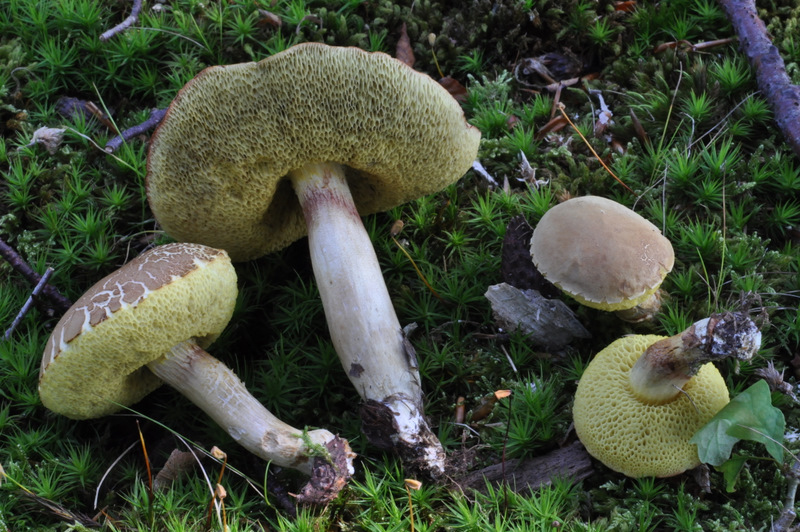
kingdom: Fungi
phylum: Basidiomycota
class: Agaricomycetes
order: Boletales
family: Boletaceae
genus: Xerocomus
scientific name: Xerocomus subtomentosus
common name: filtet rørhat
